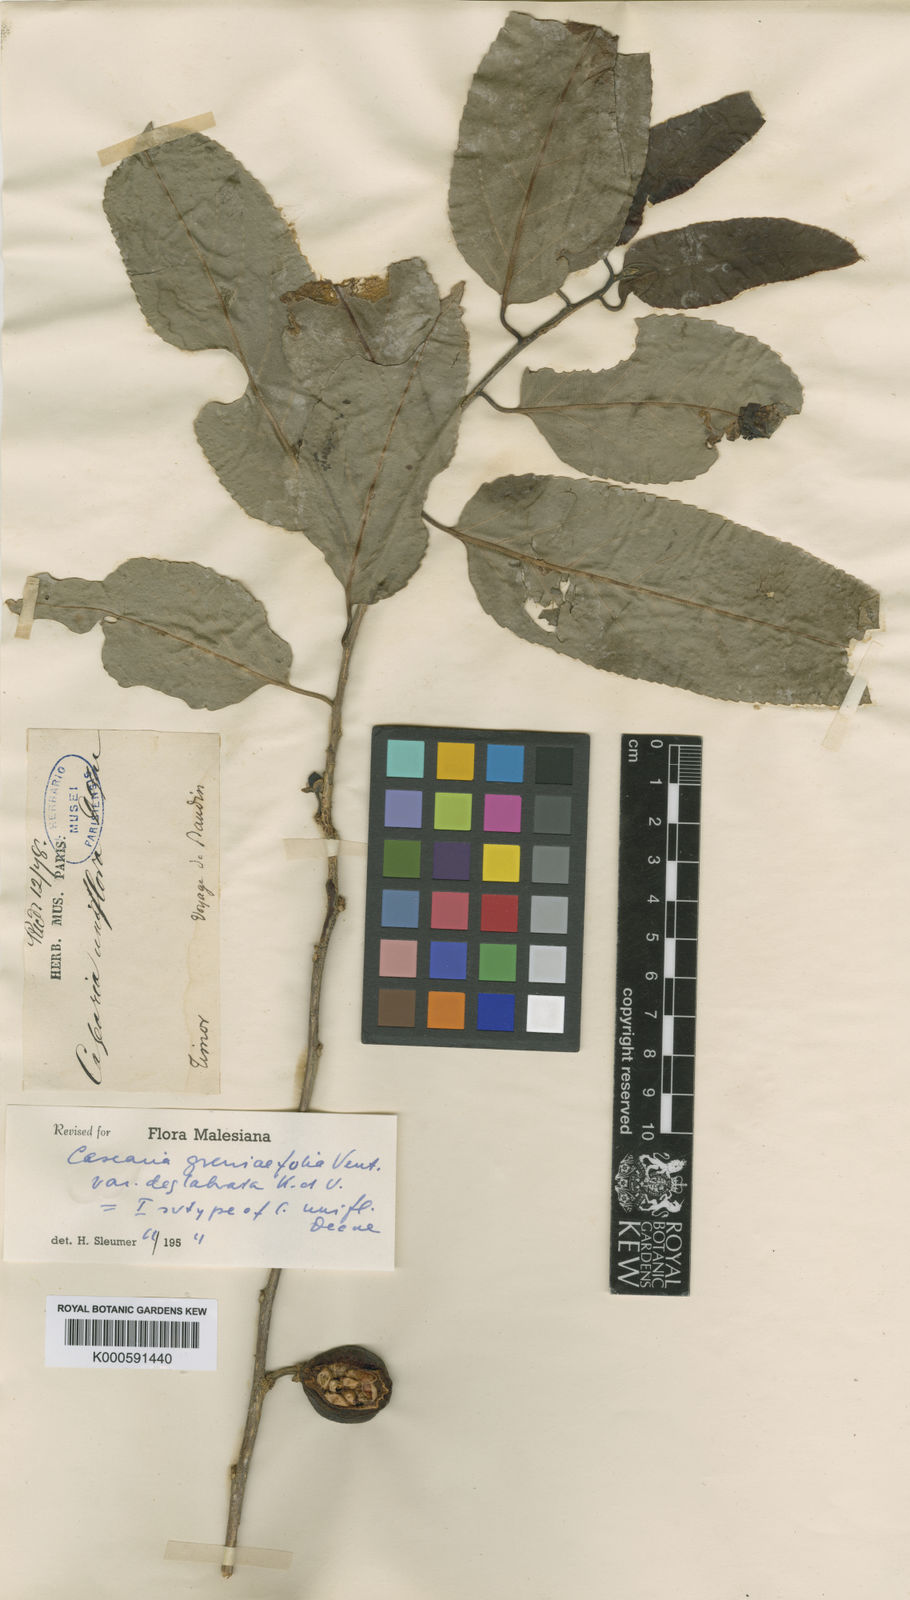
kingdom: Plantae
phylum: Tracheophyta
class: Magnoliopsida
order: Malpighiales
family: Salicaceae
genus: Casearia
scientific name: Casearia grewiifolia
